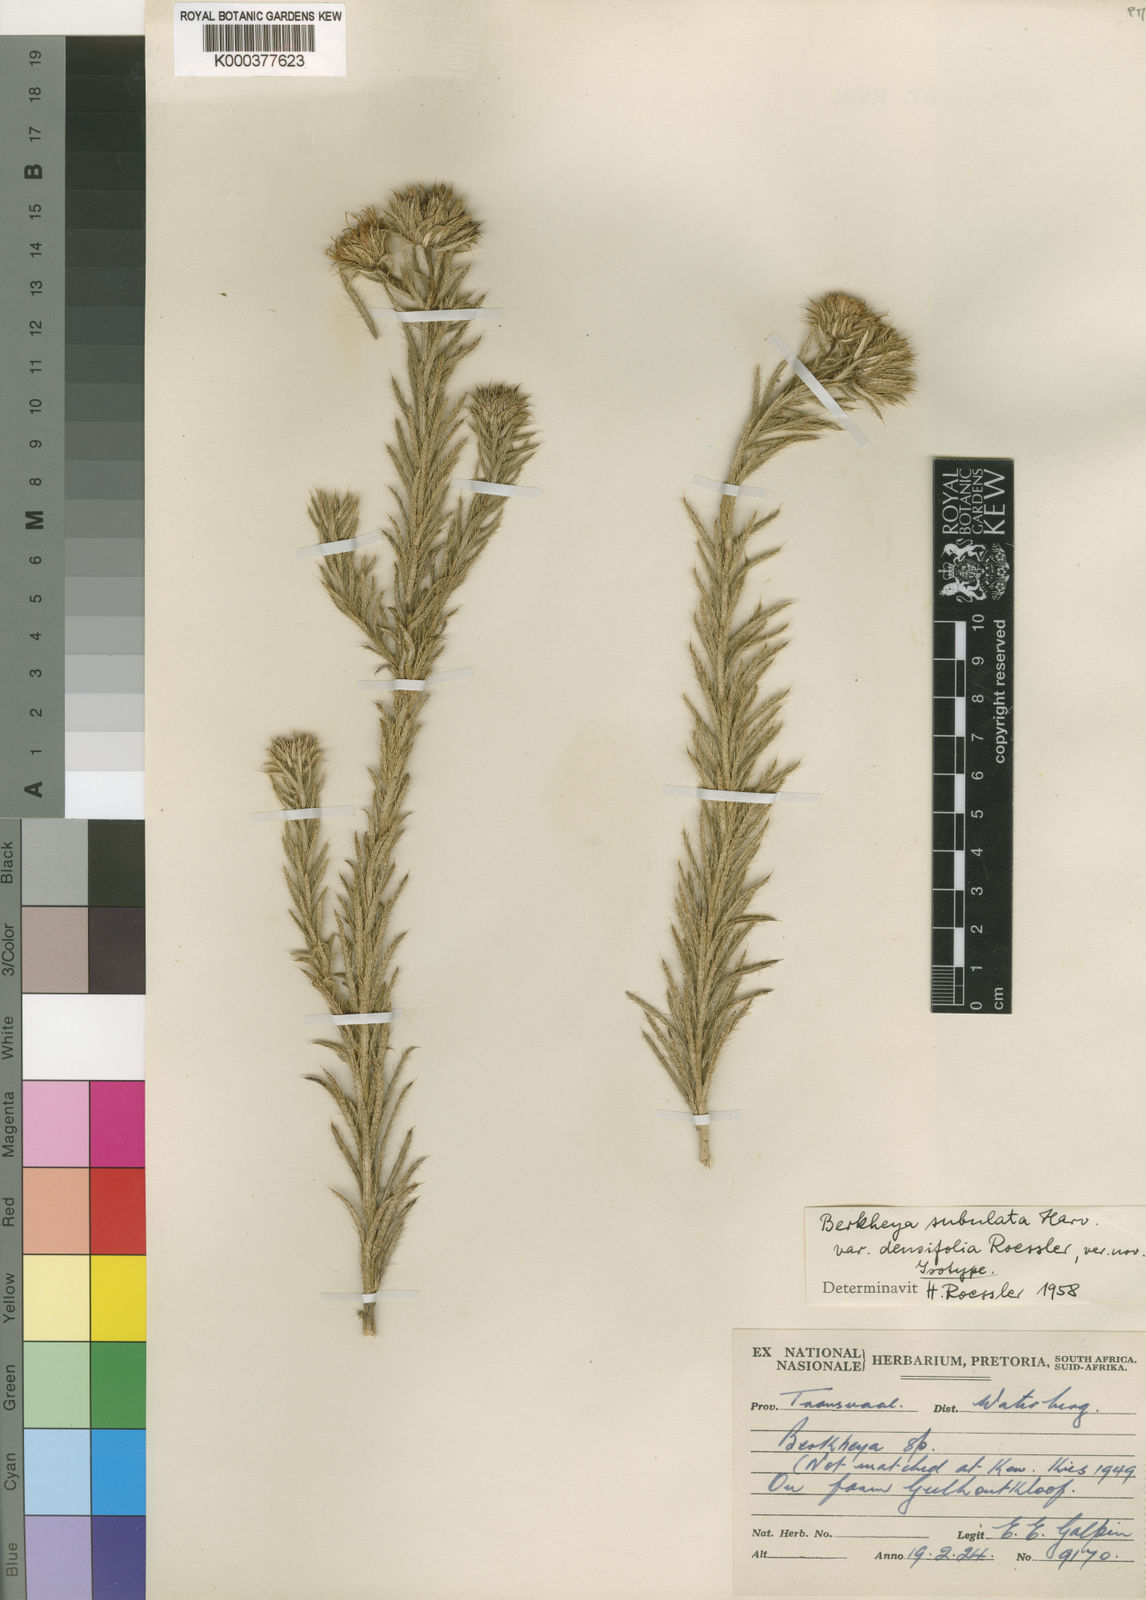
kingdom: Plantae
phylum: Tracheophyta
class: Magnoliopsida
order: Asterales
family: Asteraceae
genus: Berkheya
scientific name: Berkheya densifolia
